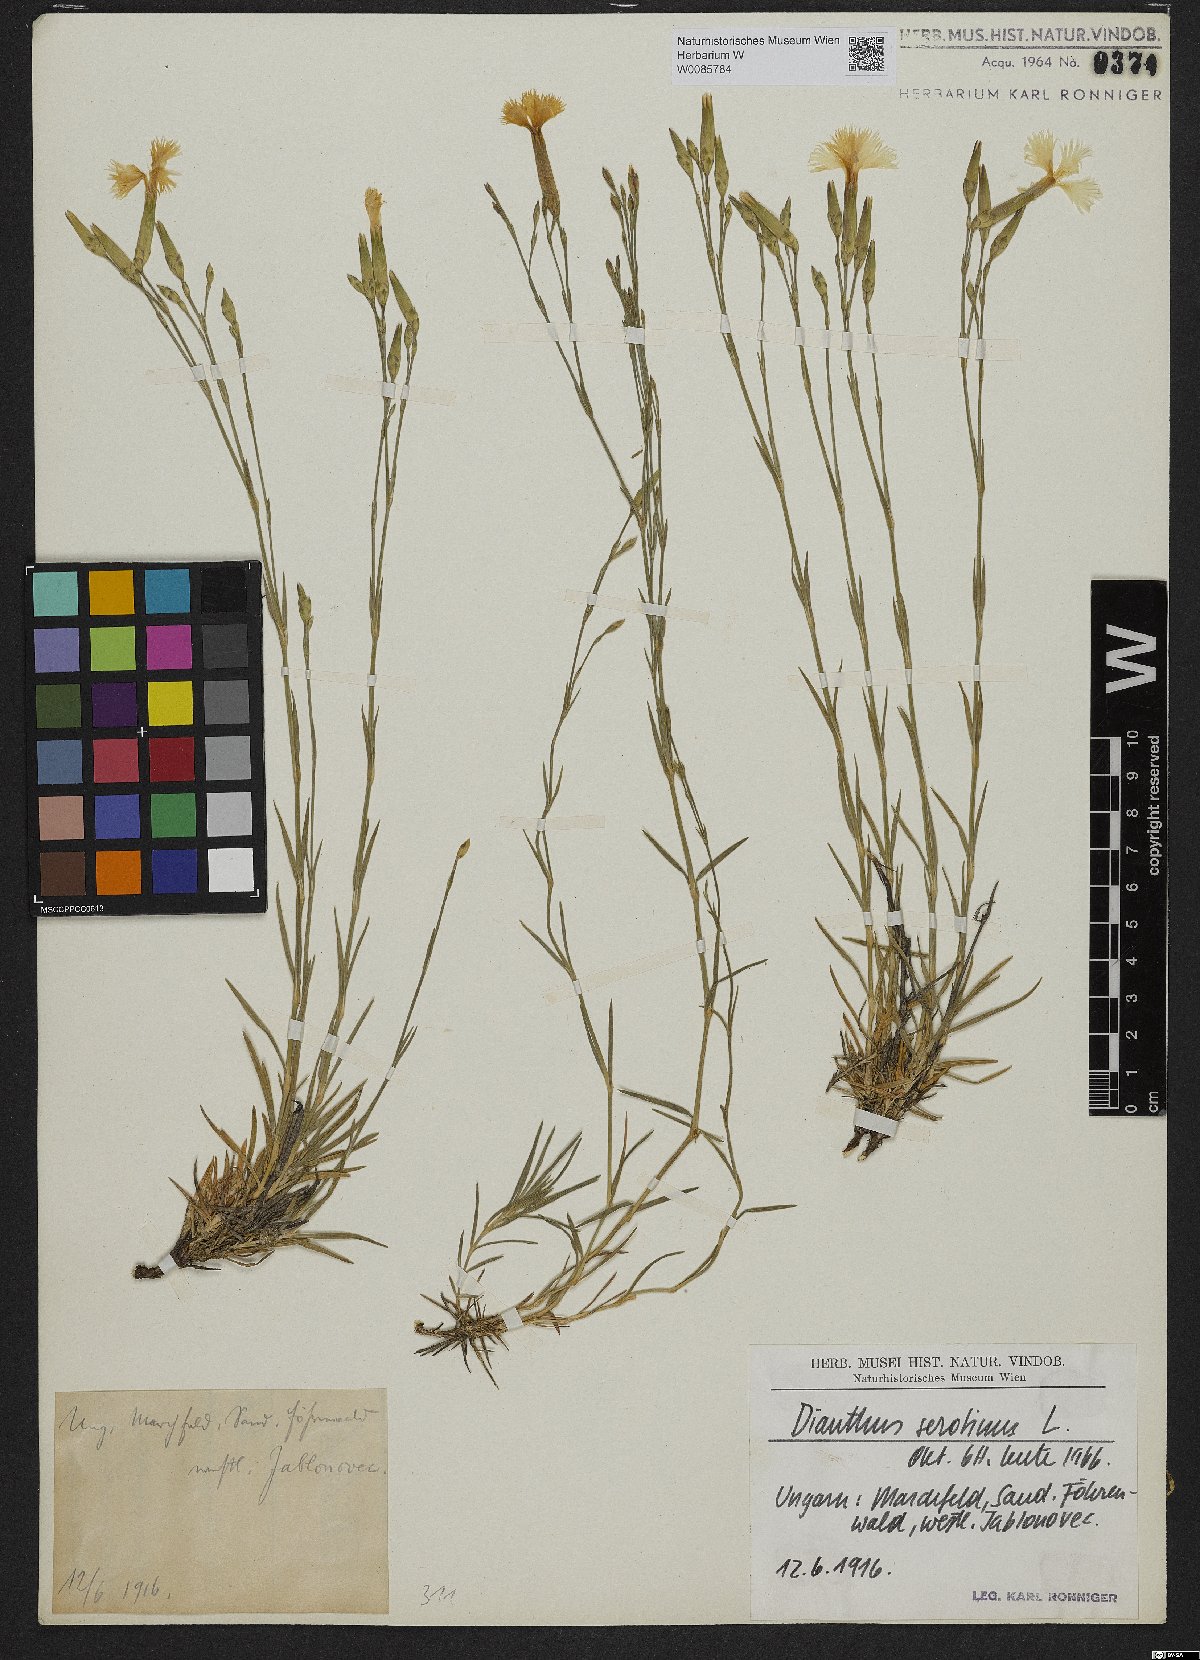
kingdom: Plantae
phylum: Tracheophyta
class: Magnoliopsida
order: Caryophyllales
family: Caryophyllaceae
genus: Dianthus
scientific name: Dianthus serotinus
